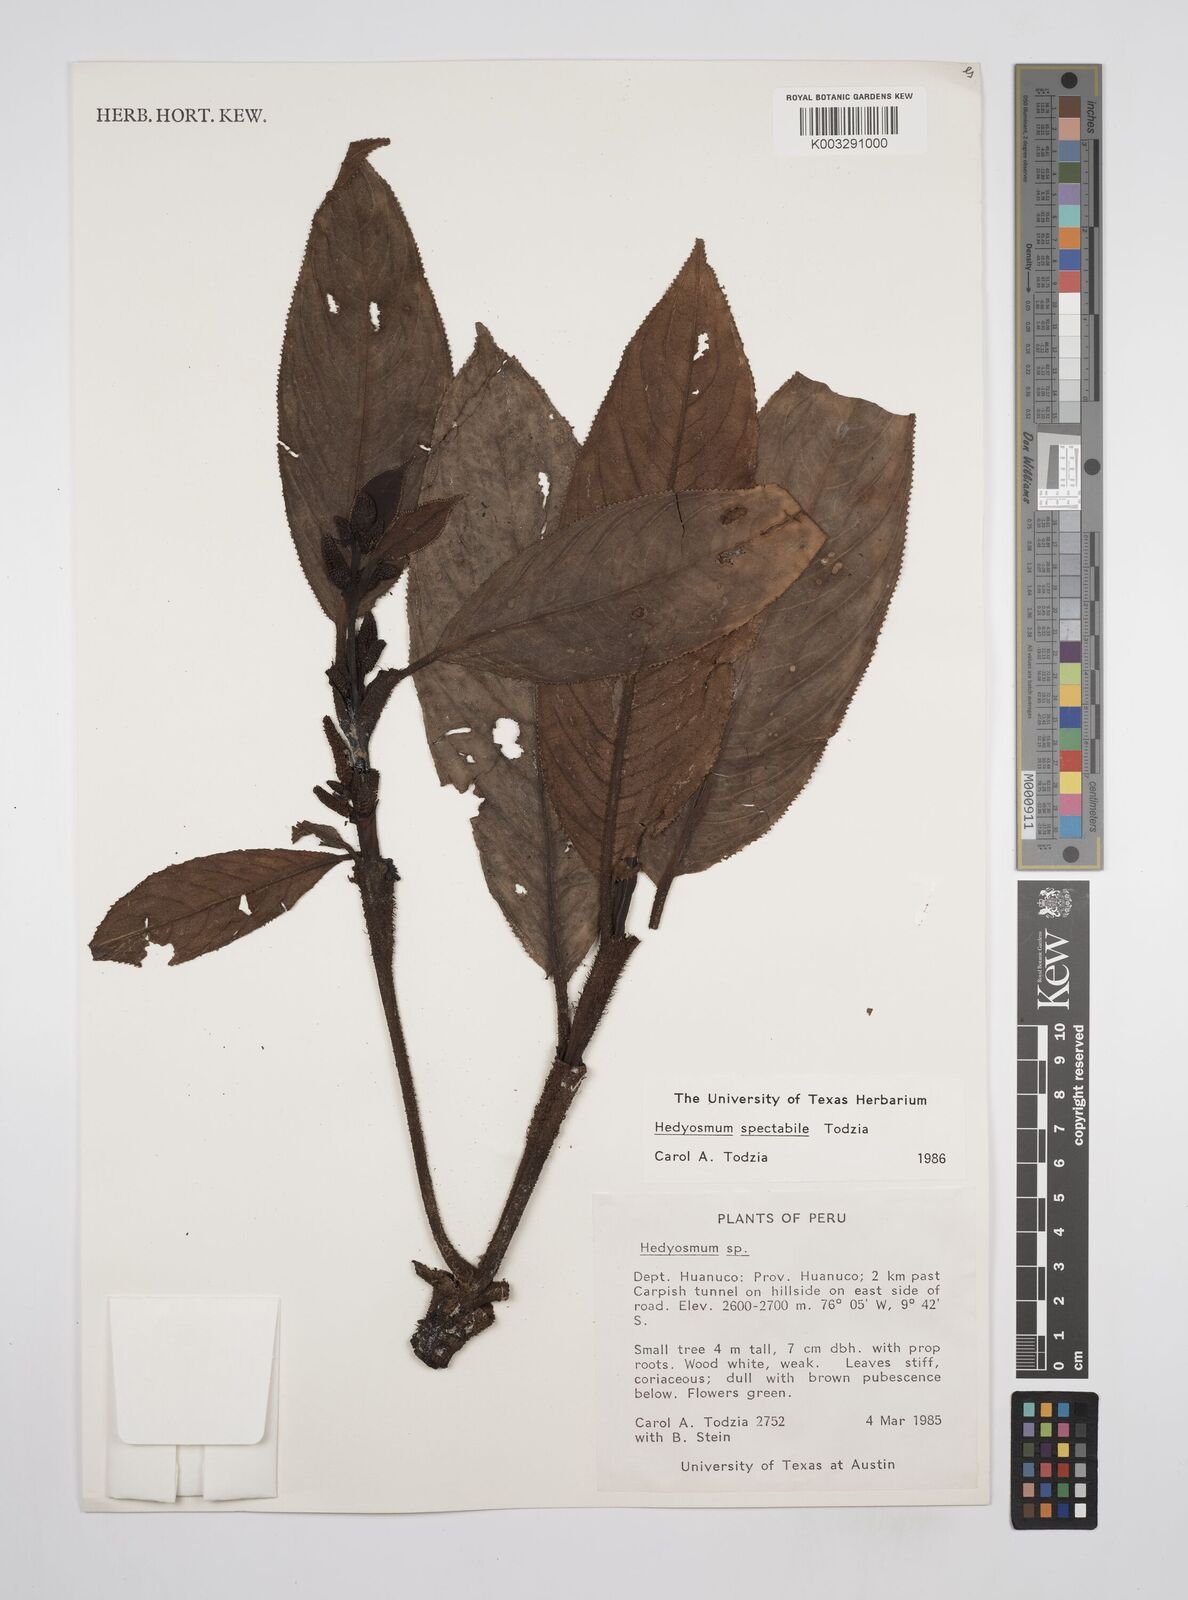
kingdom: Plantae
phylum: Tracheophyta
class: Magnoliopsida
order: Chloranthales
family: Chloranthaceae
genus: Hedyosmum
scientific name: Hedyosmum spectabile
